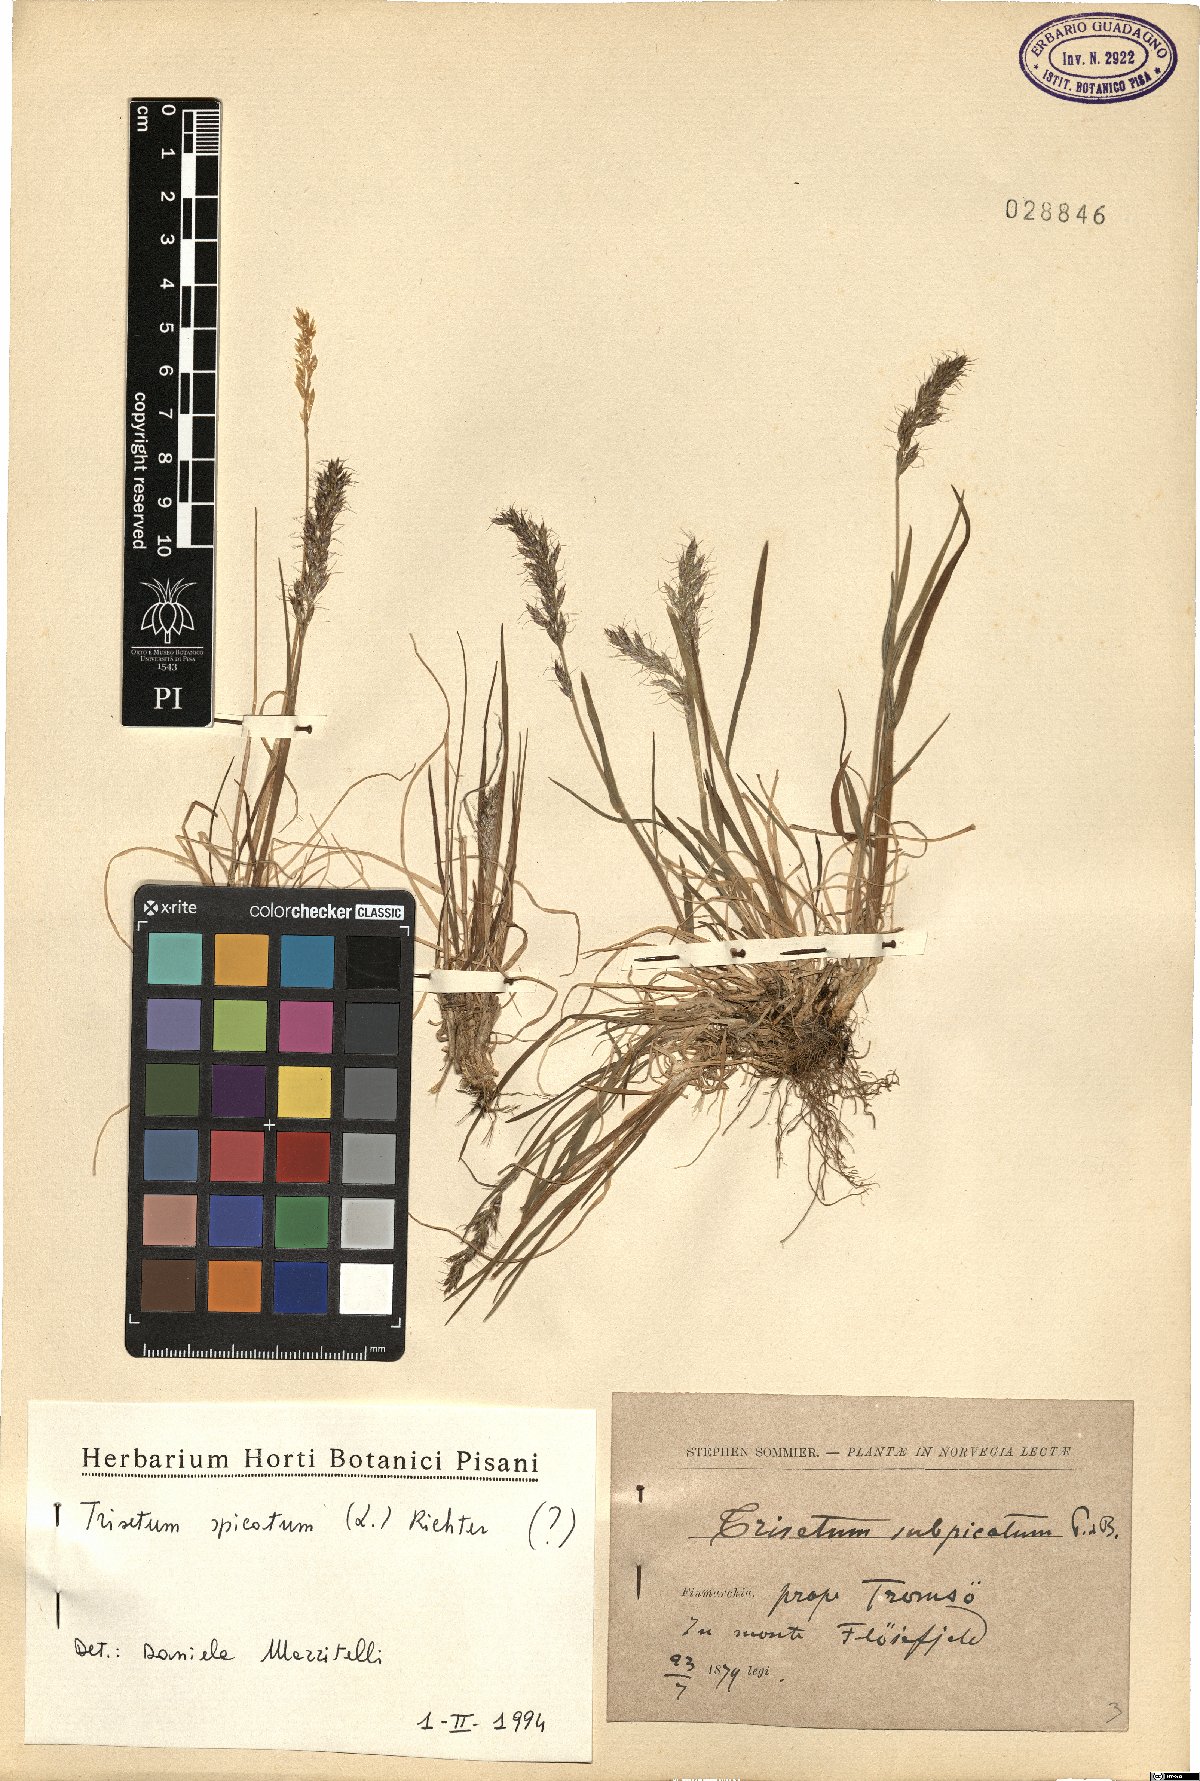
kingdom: Plantae
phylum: Tracheophyta
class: Liliopsida
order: Poales
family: Poaceae
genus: Koeleria
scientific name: Koeleria spicata
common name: Mountain trisetum
